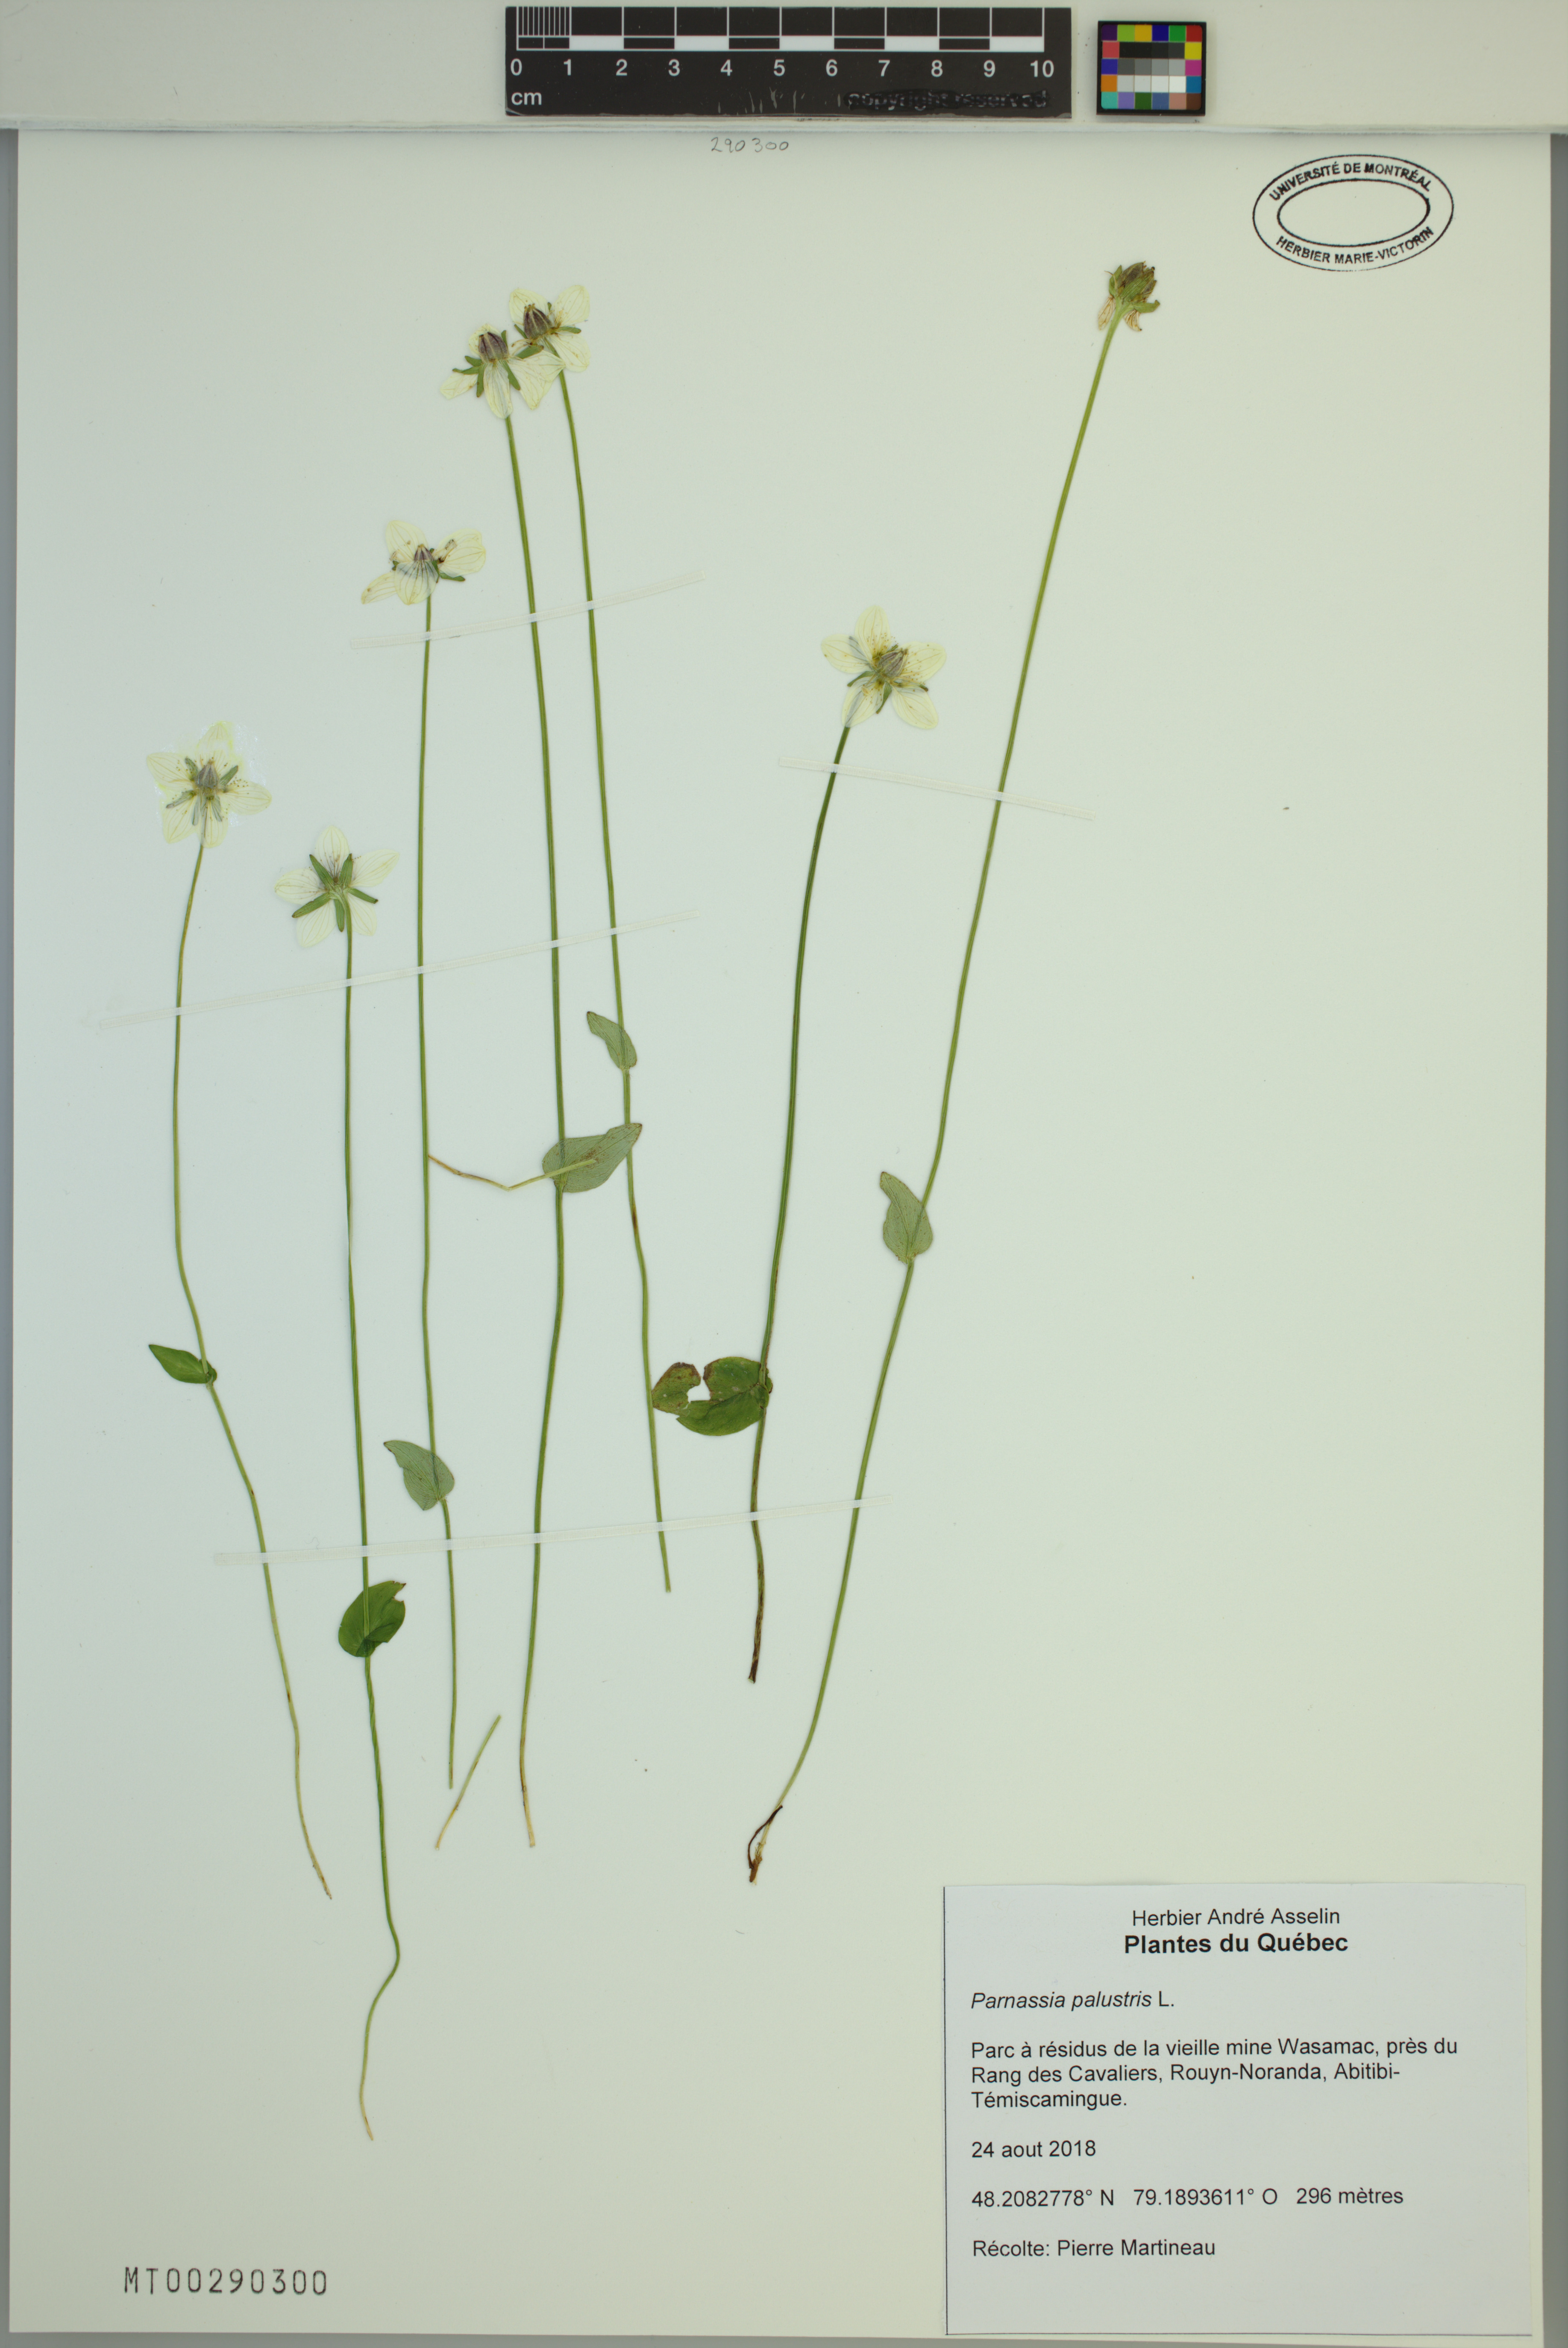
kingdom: Plantae
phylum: Tracheophyta
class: Magnoliopsida
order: Celastrales
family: Parnassiaceae
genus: Parnassia
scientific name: Parnassia palustris
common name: Grass-of-parnassus
